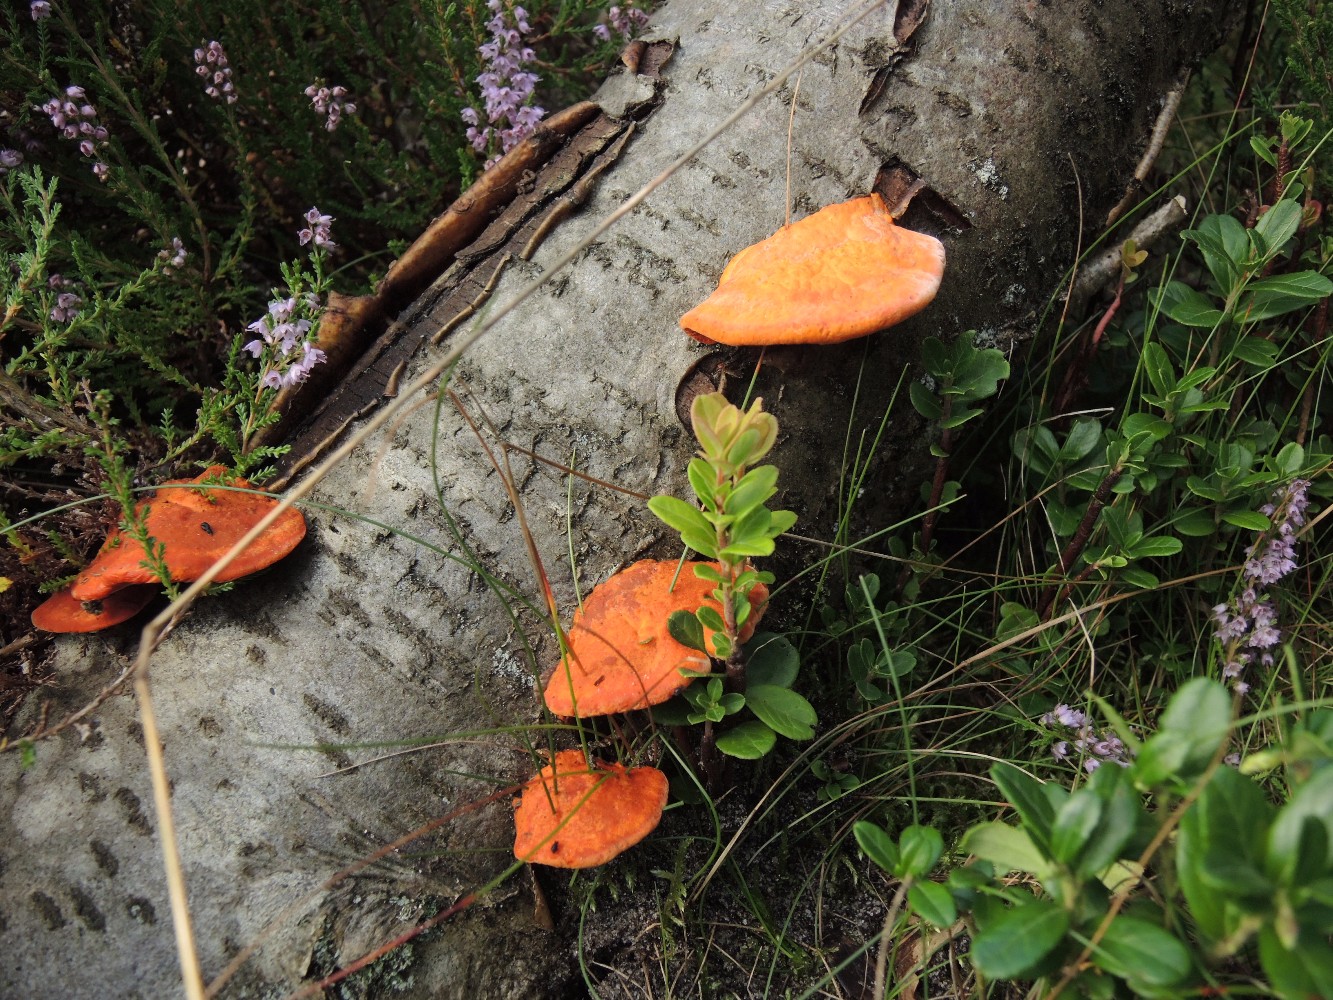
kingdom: Fungi
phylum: Basidiomycota
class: Agaricomycetes
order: Polyporales
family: Polyporaceae
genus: Trametes
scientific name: Trametes cinnabarina
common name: cinnoberporesvamp
